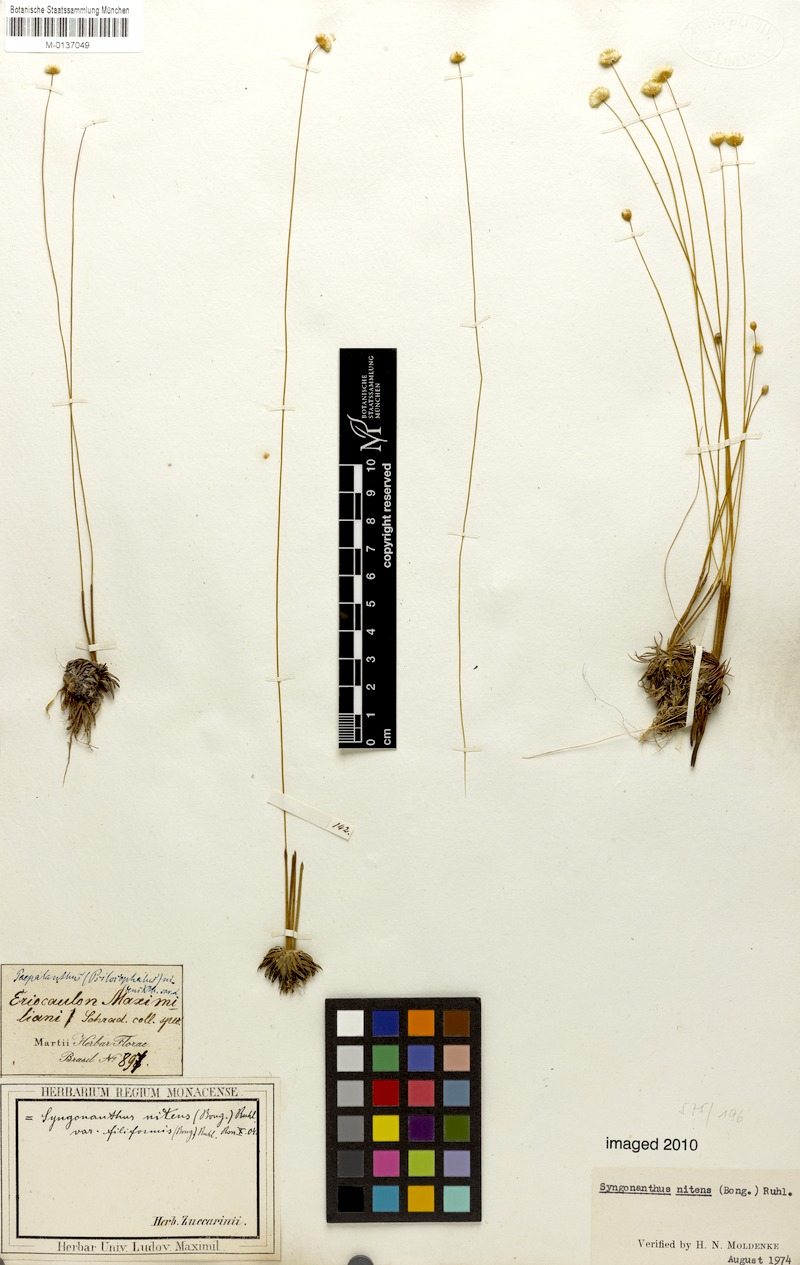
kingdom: Plantae
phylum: Tracheophyta
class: Liliopsida
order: Poales
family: Eriocaulaceae
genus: Syngonanthus
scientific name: Syngonanthus nitens
